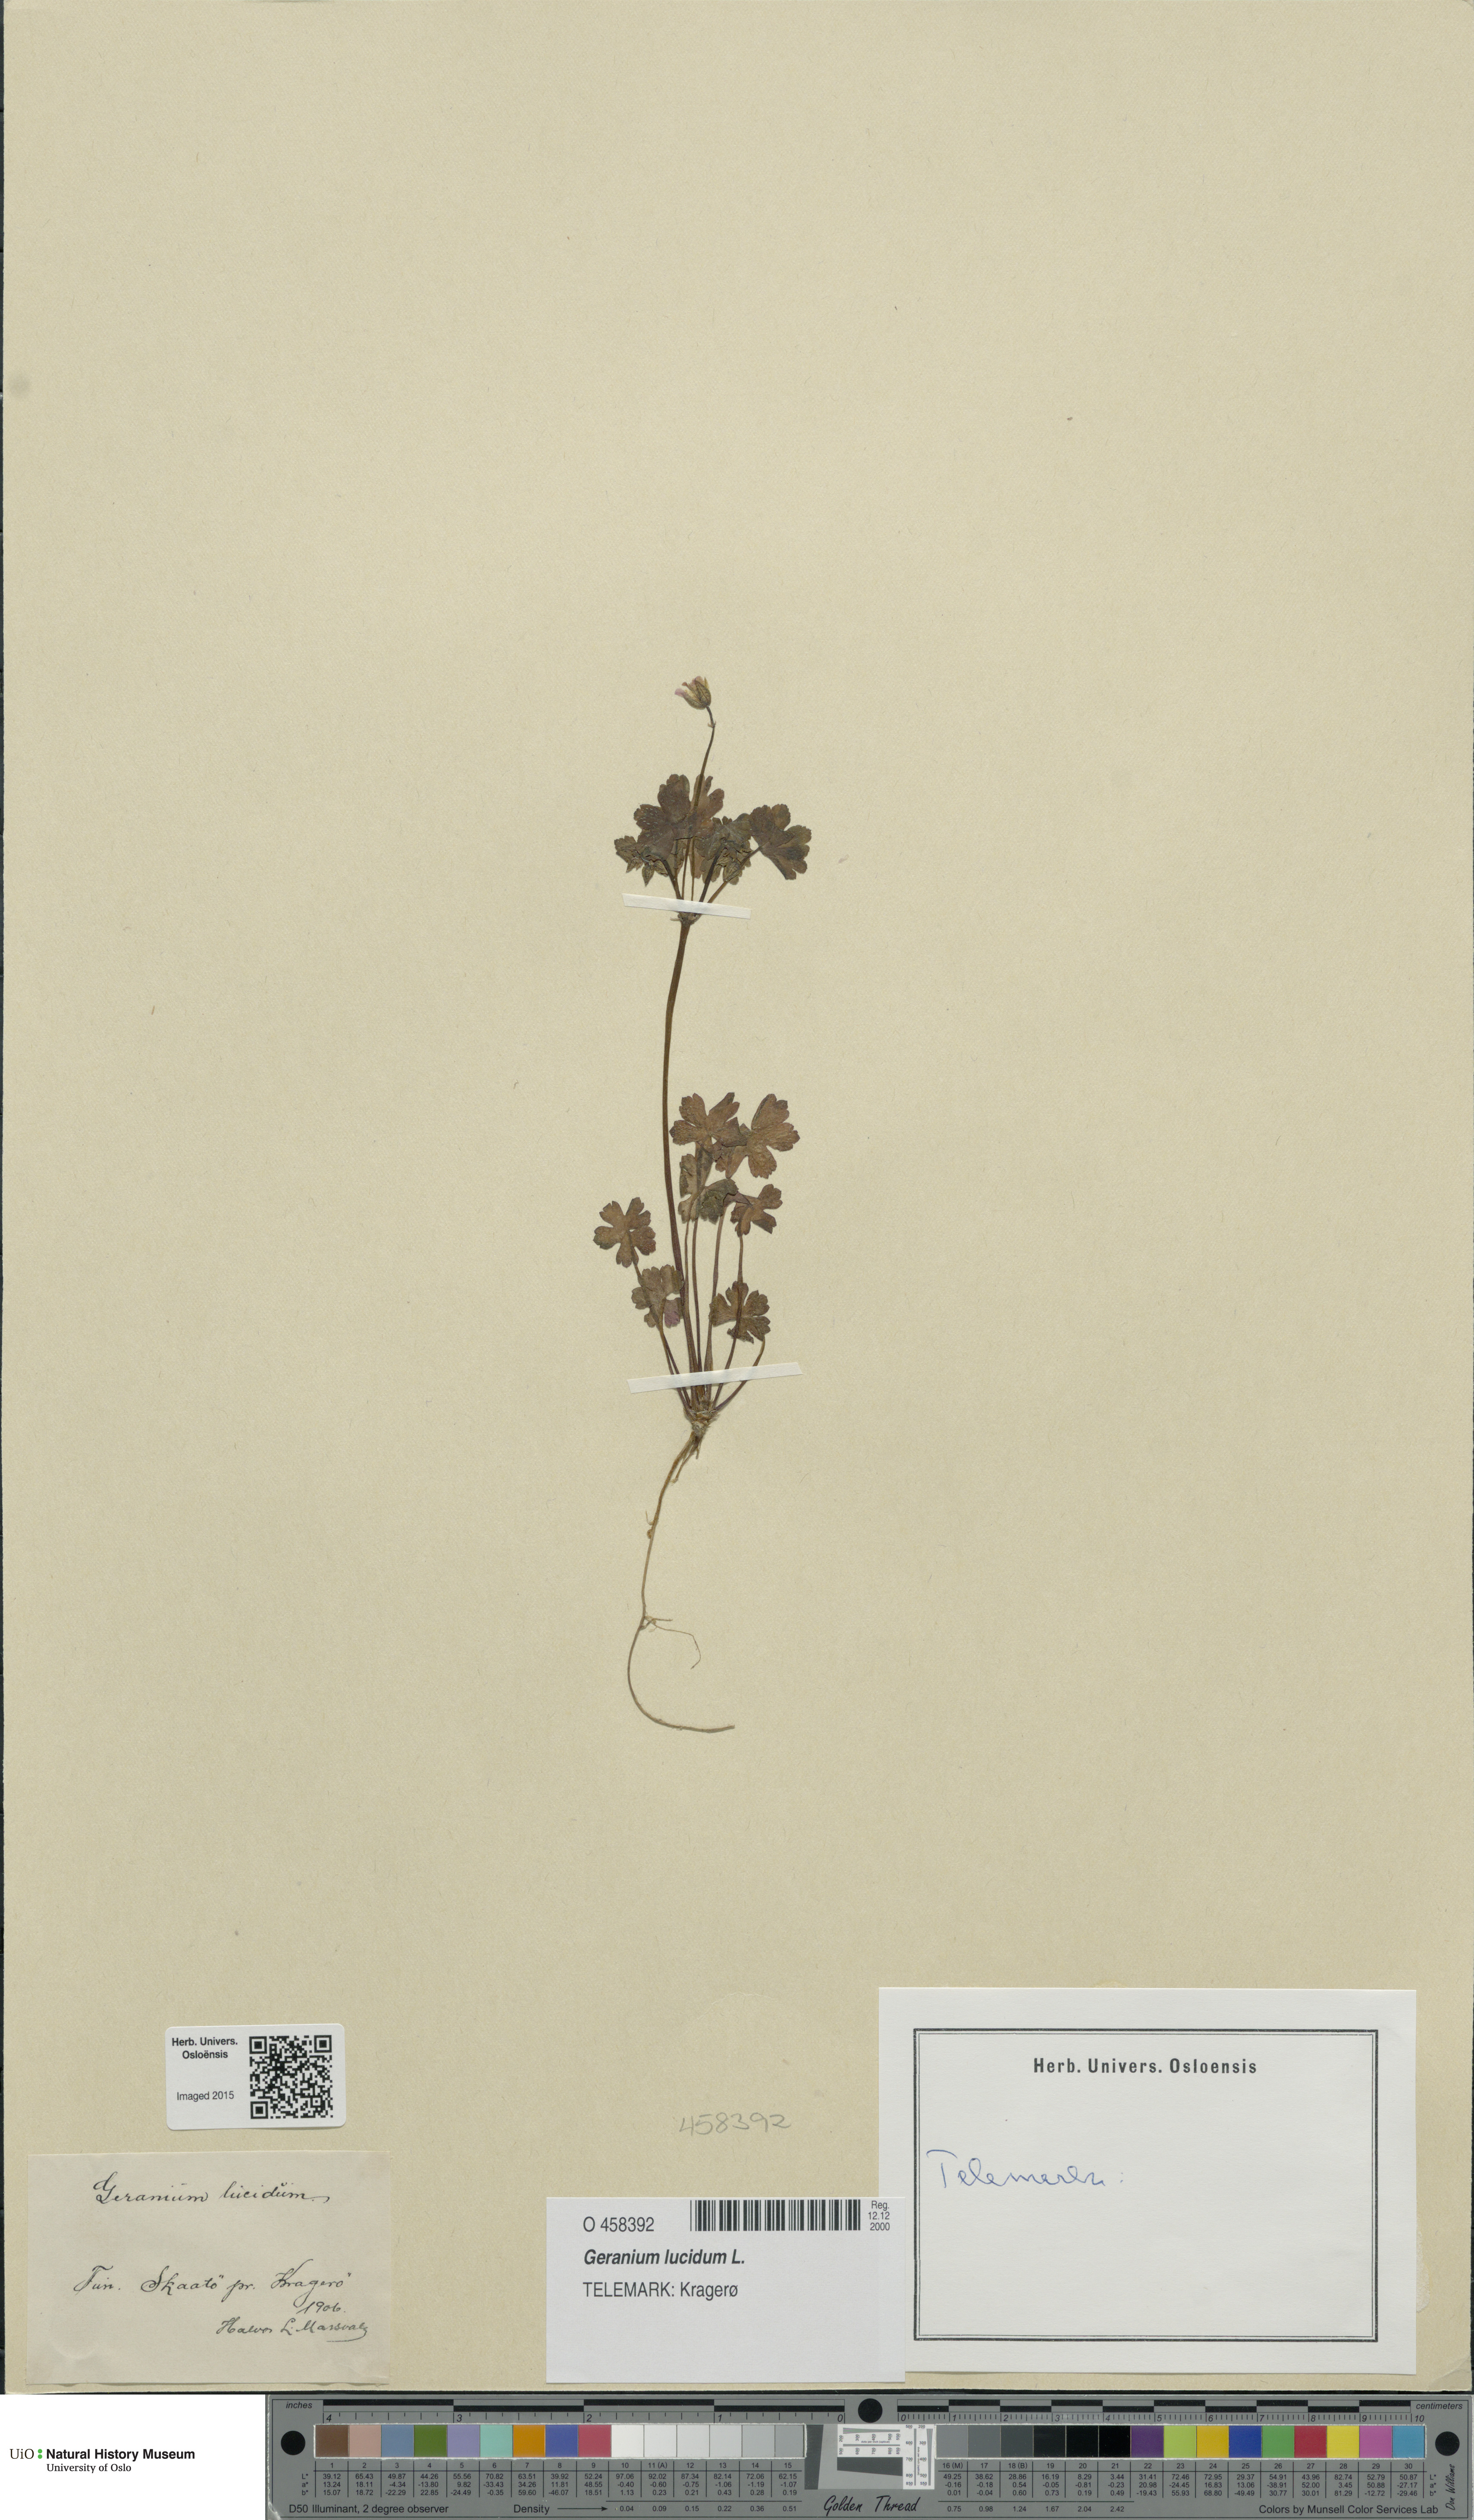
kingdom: Plantae
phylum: Tracheophyta
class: Magnoliopsida
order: Geraniales
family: Geraniaceae
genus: Geranium
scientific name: Geranium lucidum
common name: Shining crane's-bill
